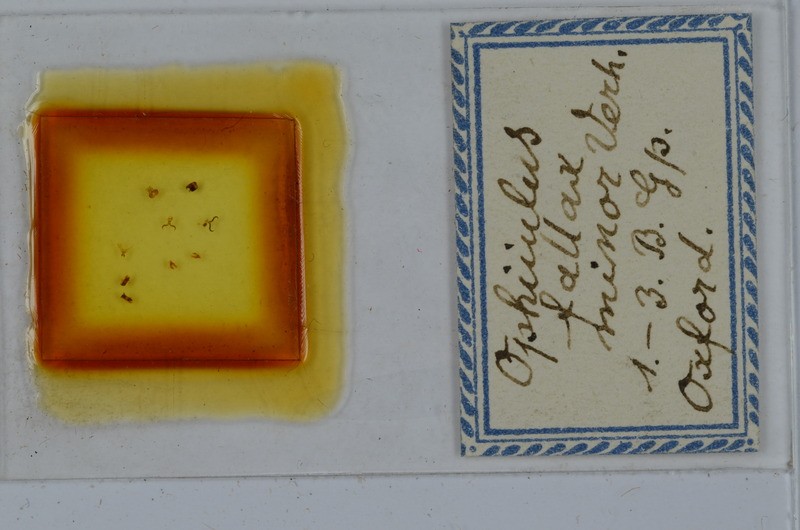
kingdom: Animalia
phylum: Arthropoda
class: Diplopoda
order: Julida
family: Julidae
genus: Ophyiulus
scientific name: Ophyiulus pilosus
